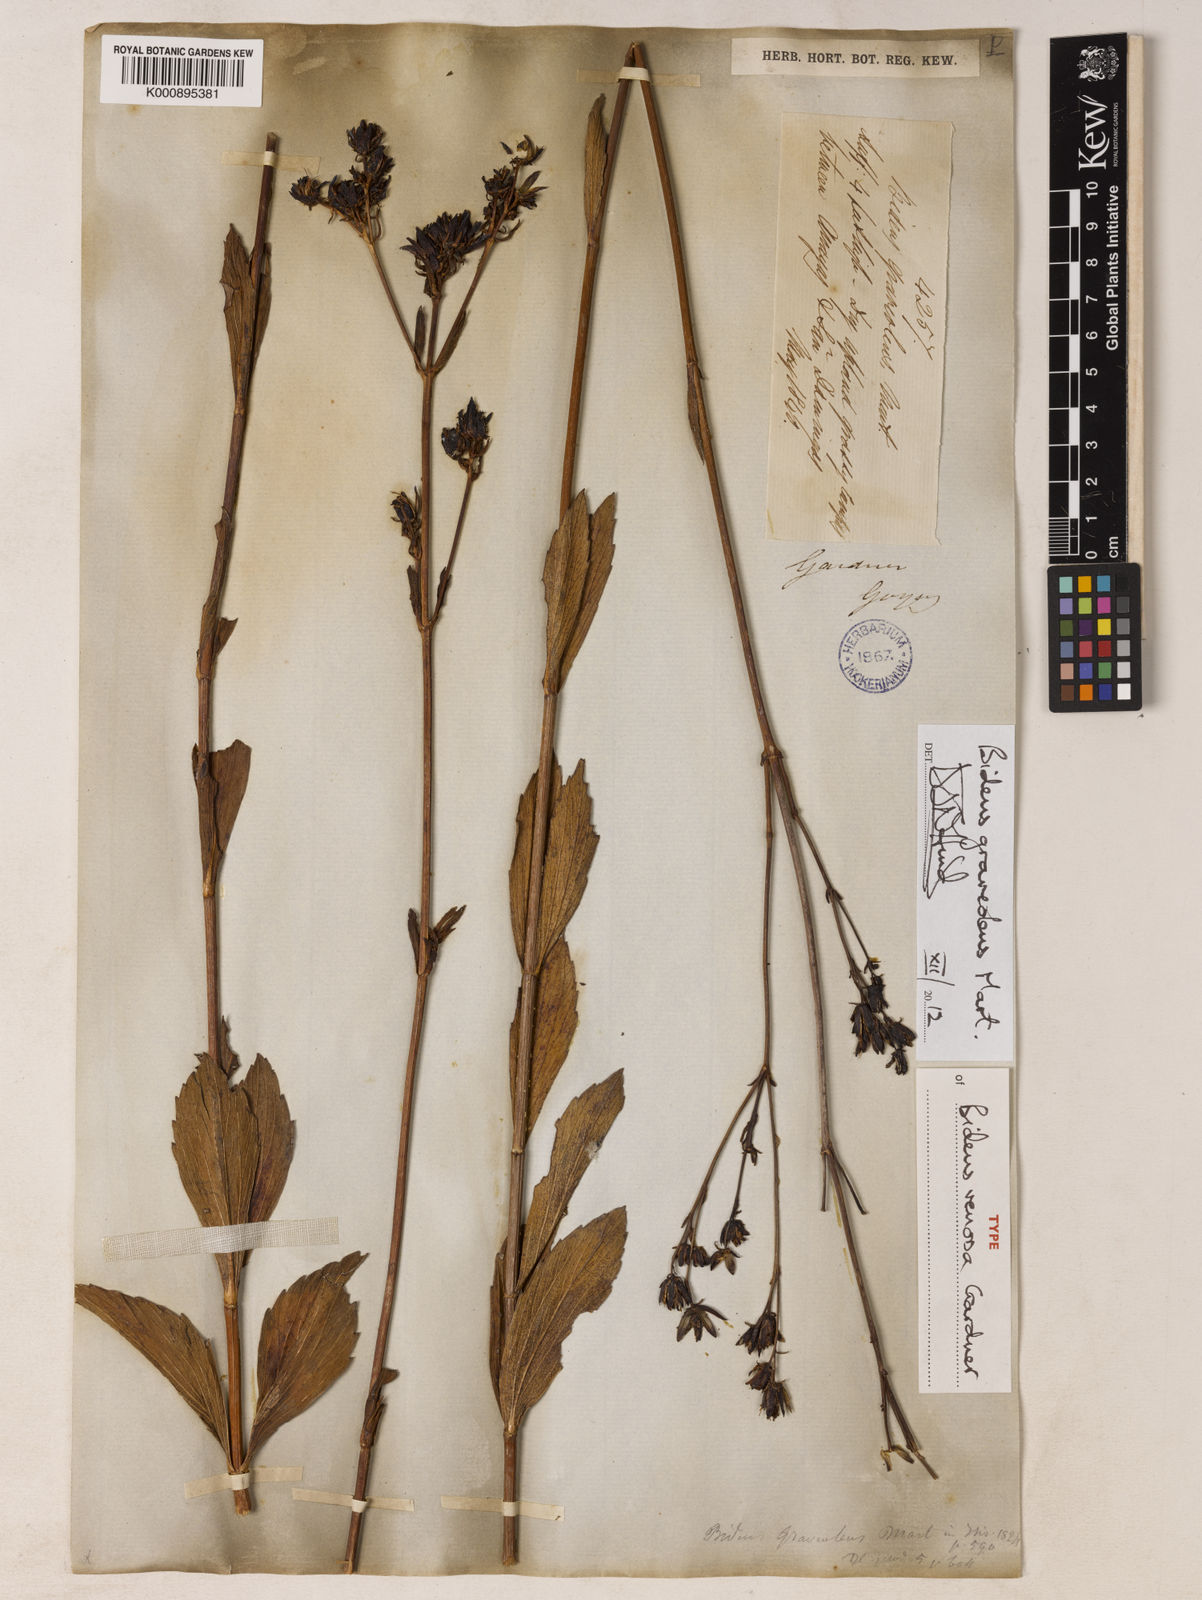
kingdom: Plantae
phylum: Tracheophyta
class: Magnoliopsida
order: Asterales
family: Asteraceae
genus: Bidens
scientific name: Bidens graveolens
